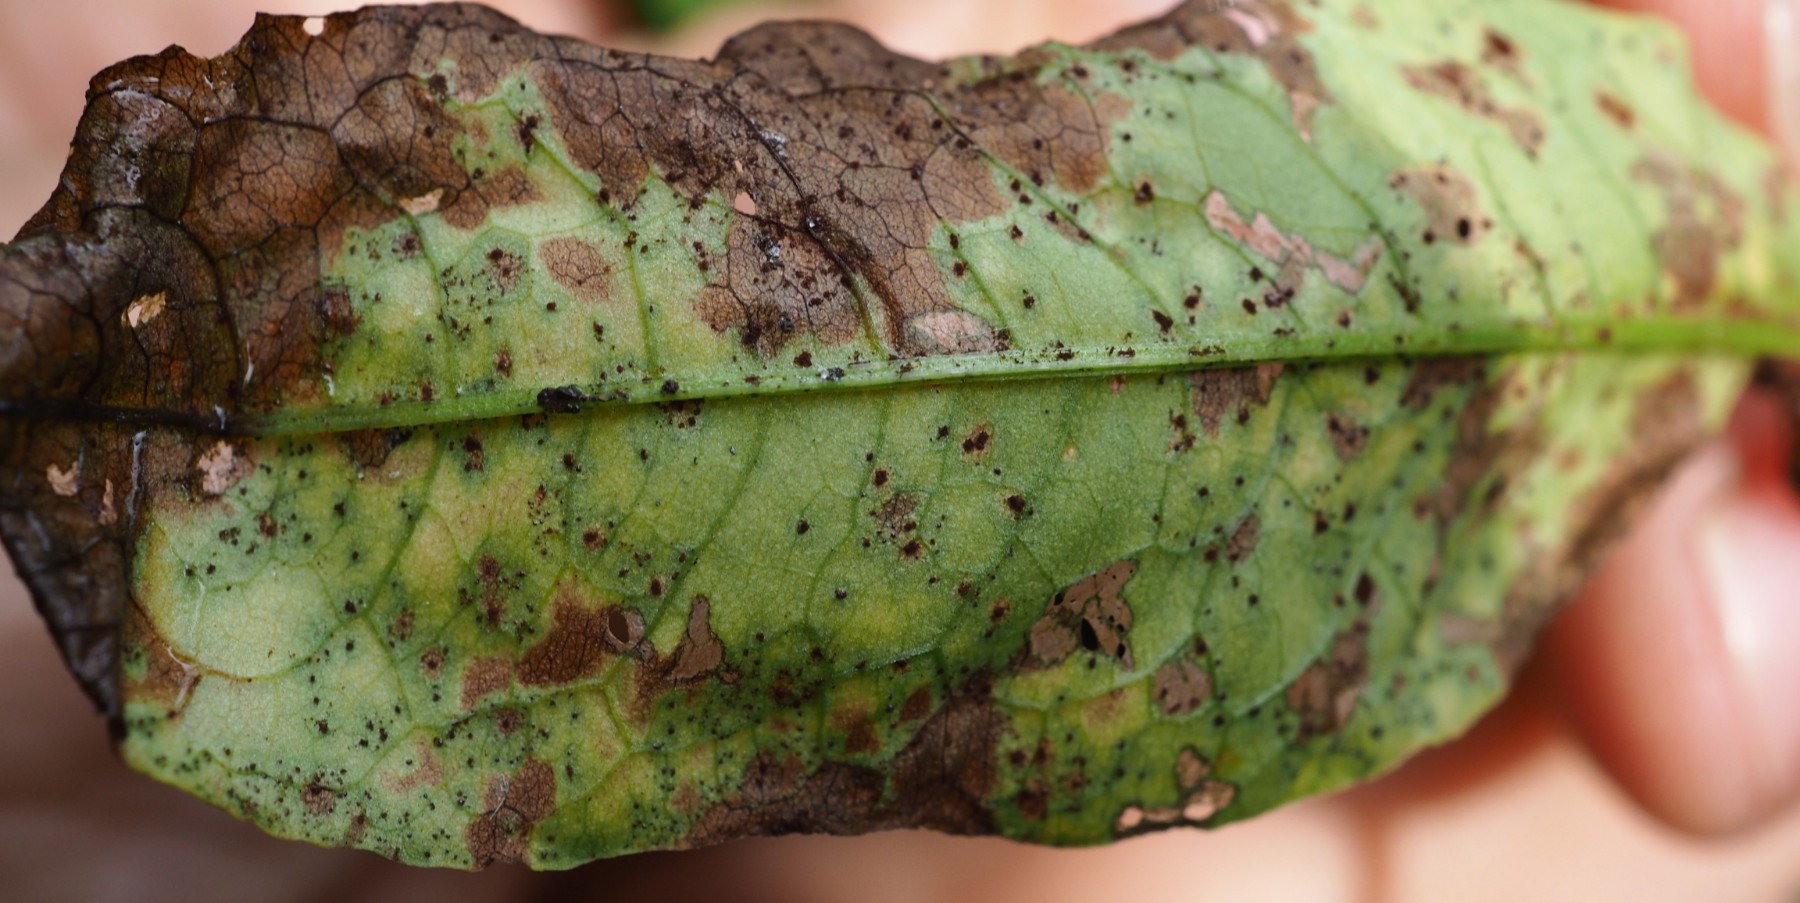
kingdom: Fungi
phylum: Basidiomycota
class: Pucciniomycetes
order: Pucciniales
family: Pucciniaceae
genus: Uromyces
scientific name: Uromyces rumicis
